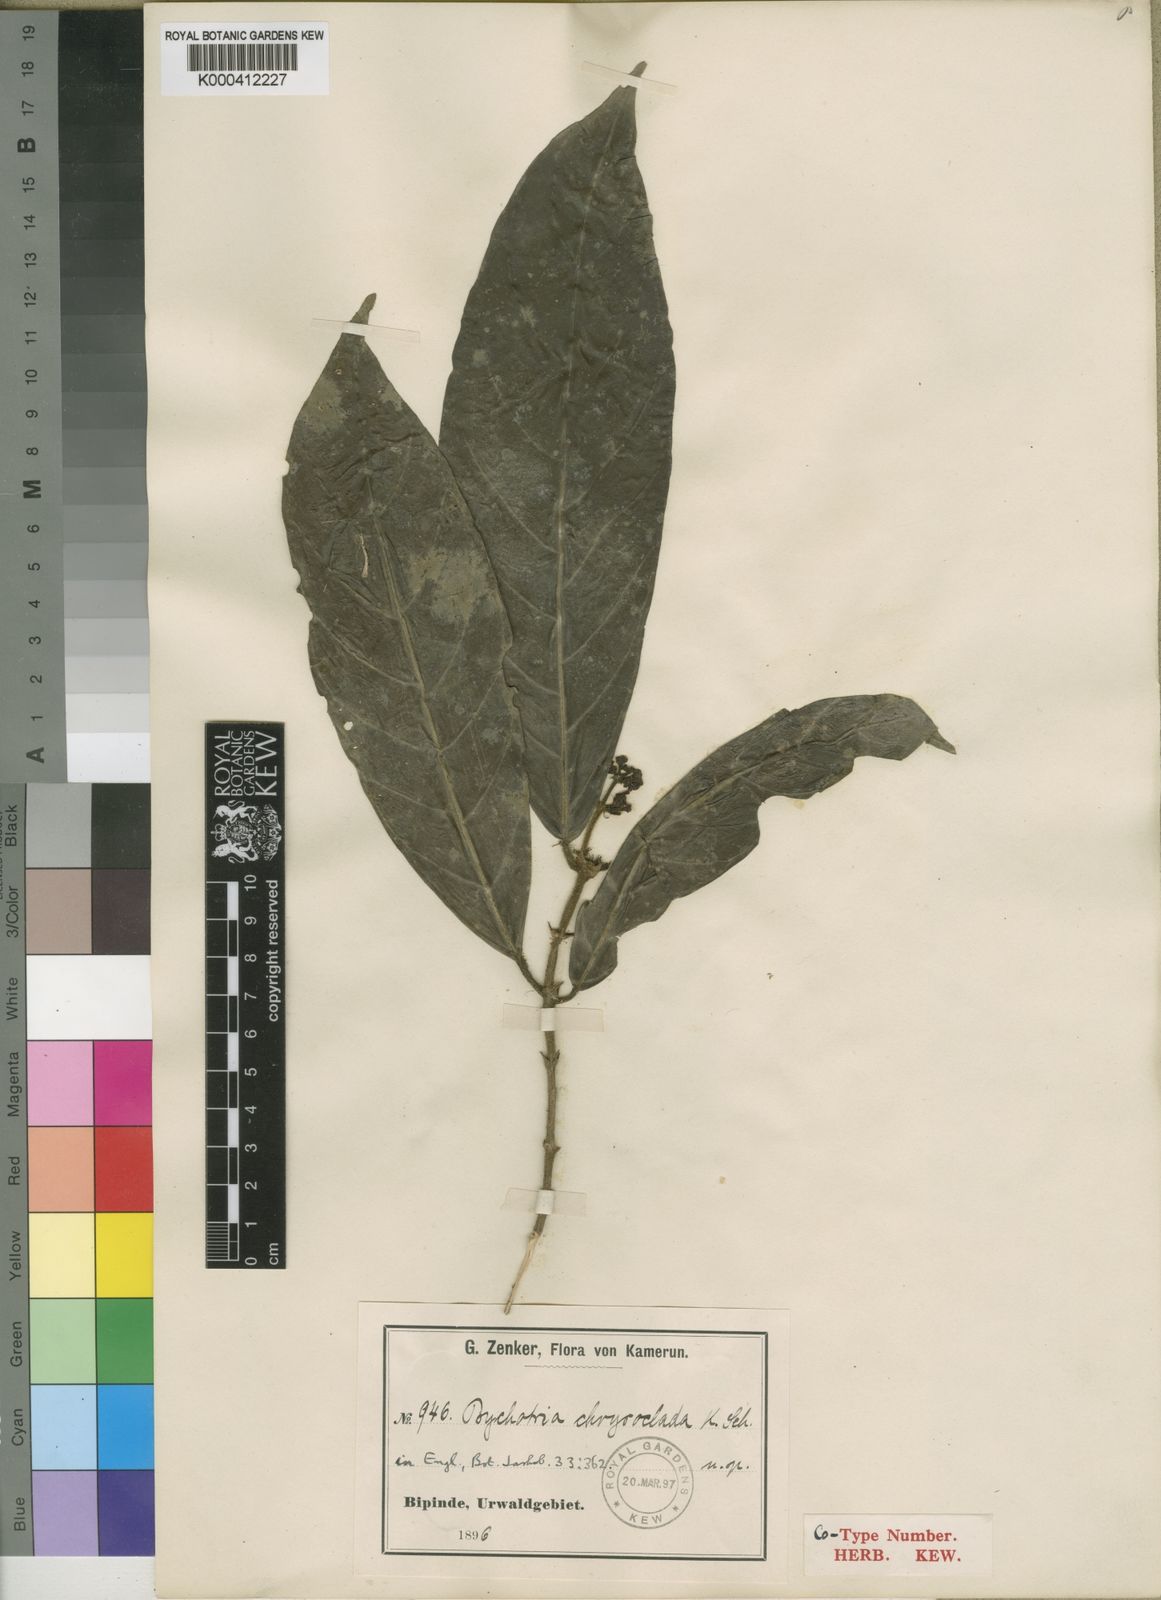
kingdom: Plantae
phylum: Tracheophyta
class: Magnoliopsida
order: Gentianales
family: Rubiaceae
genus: Chassalia
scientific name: Chassalia chrysoclada
